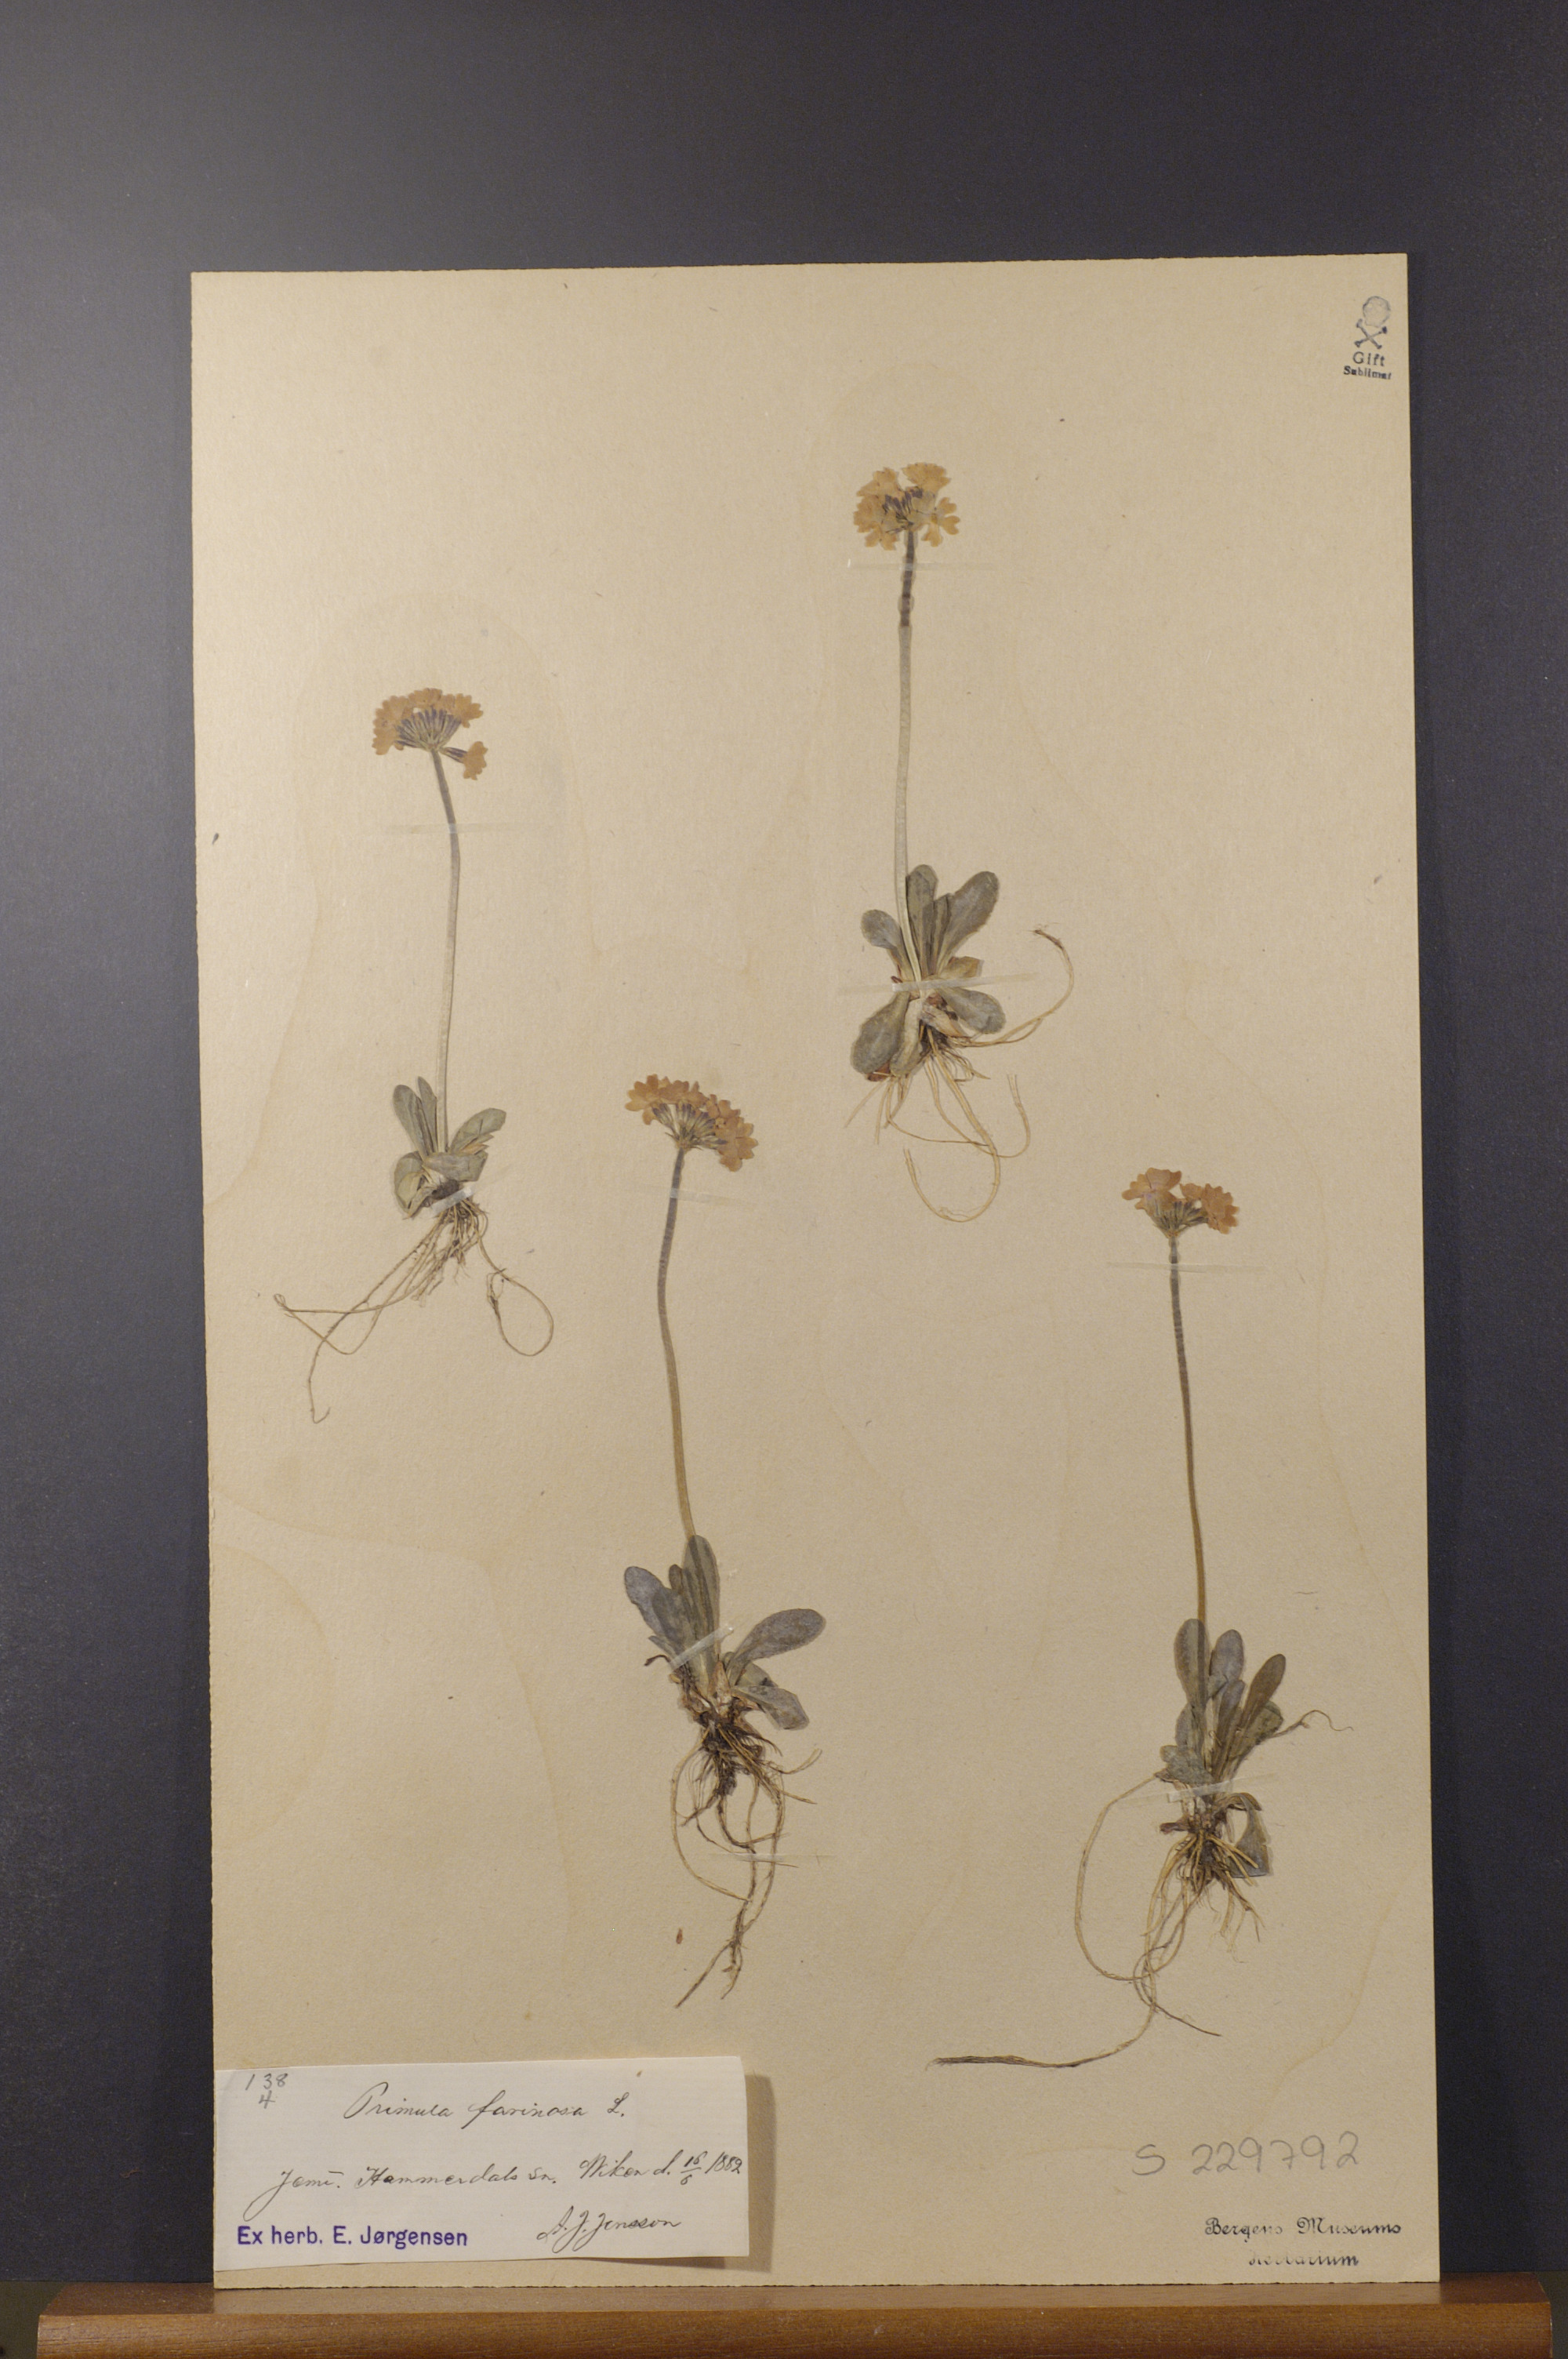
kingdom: Plantae
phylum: Tracheophyta
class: Magnoliopsida
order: Ericales
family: Primulaceae
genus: Primula
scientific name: Primula farinosa
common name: Bird's-eye primrose
